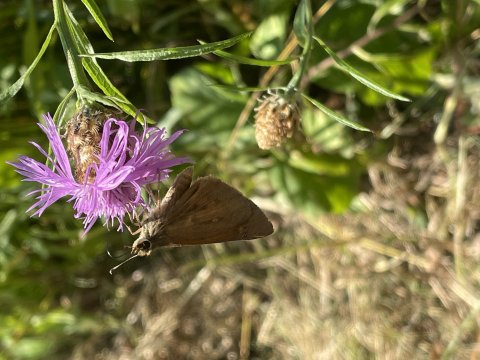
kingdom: Animalia
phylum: Arthropoda
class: Insecta
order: Lepidoptera
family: Hesperiidae
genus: Poanes
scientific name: Poanes viator
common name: Broad-winged Skipper
